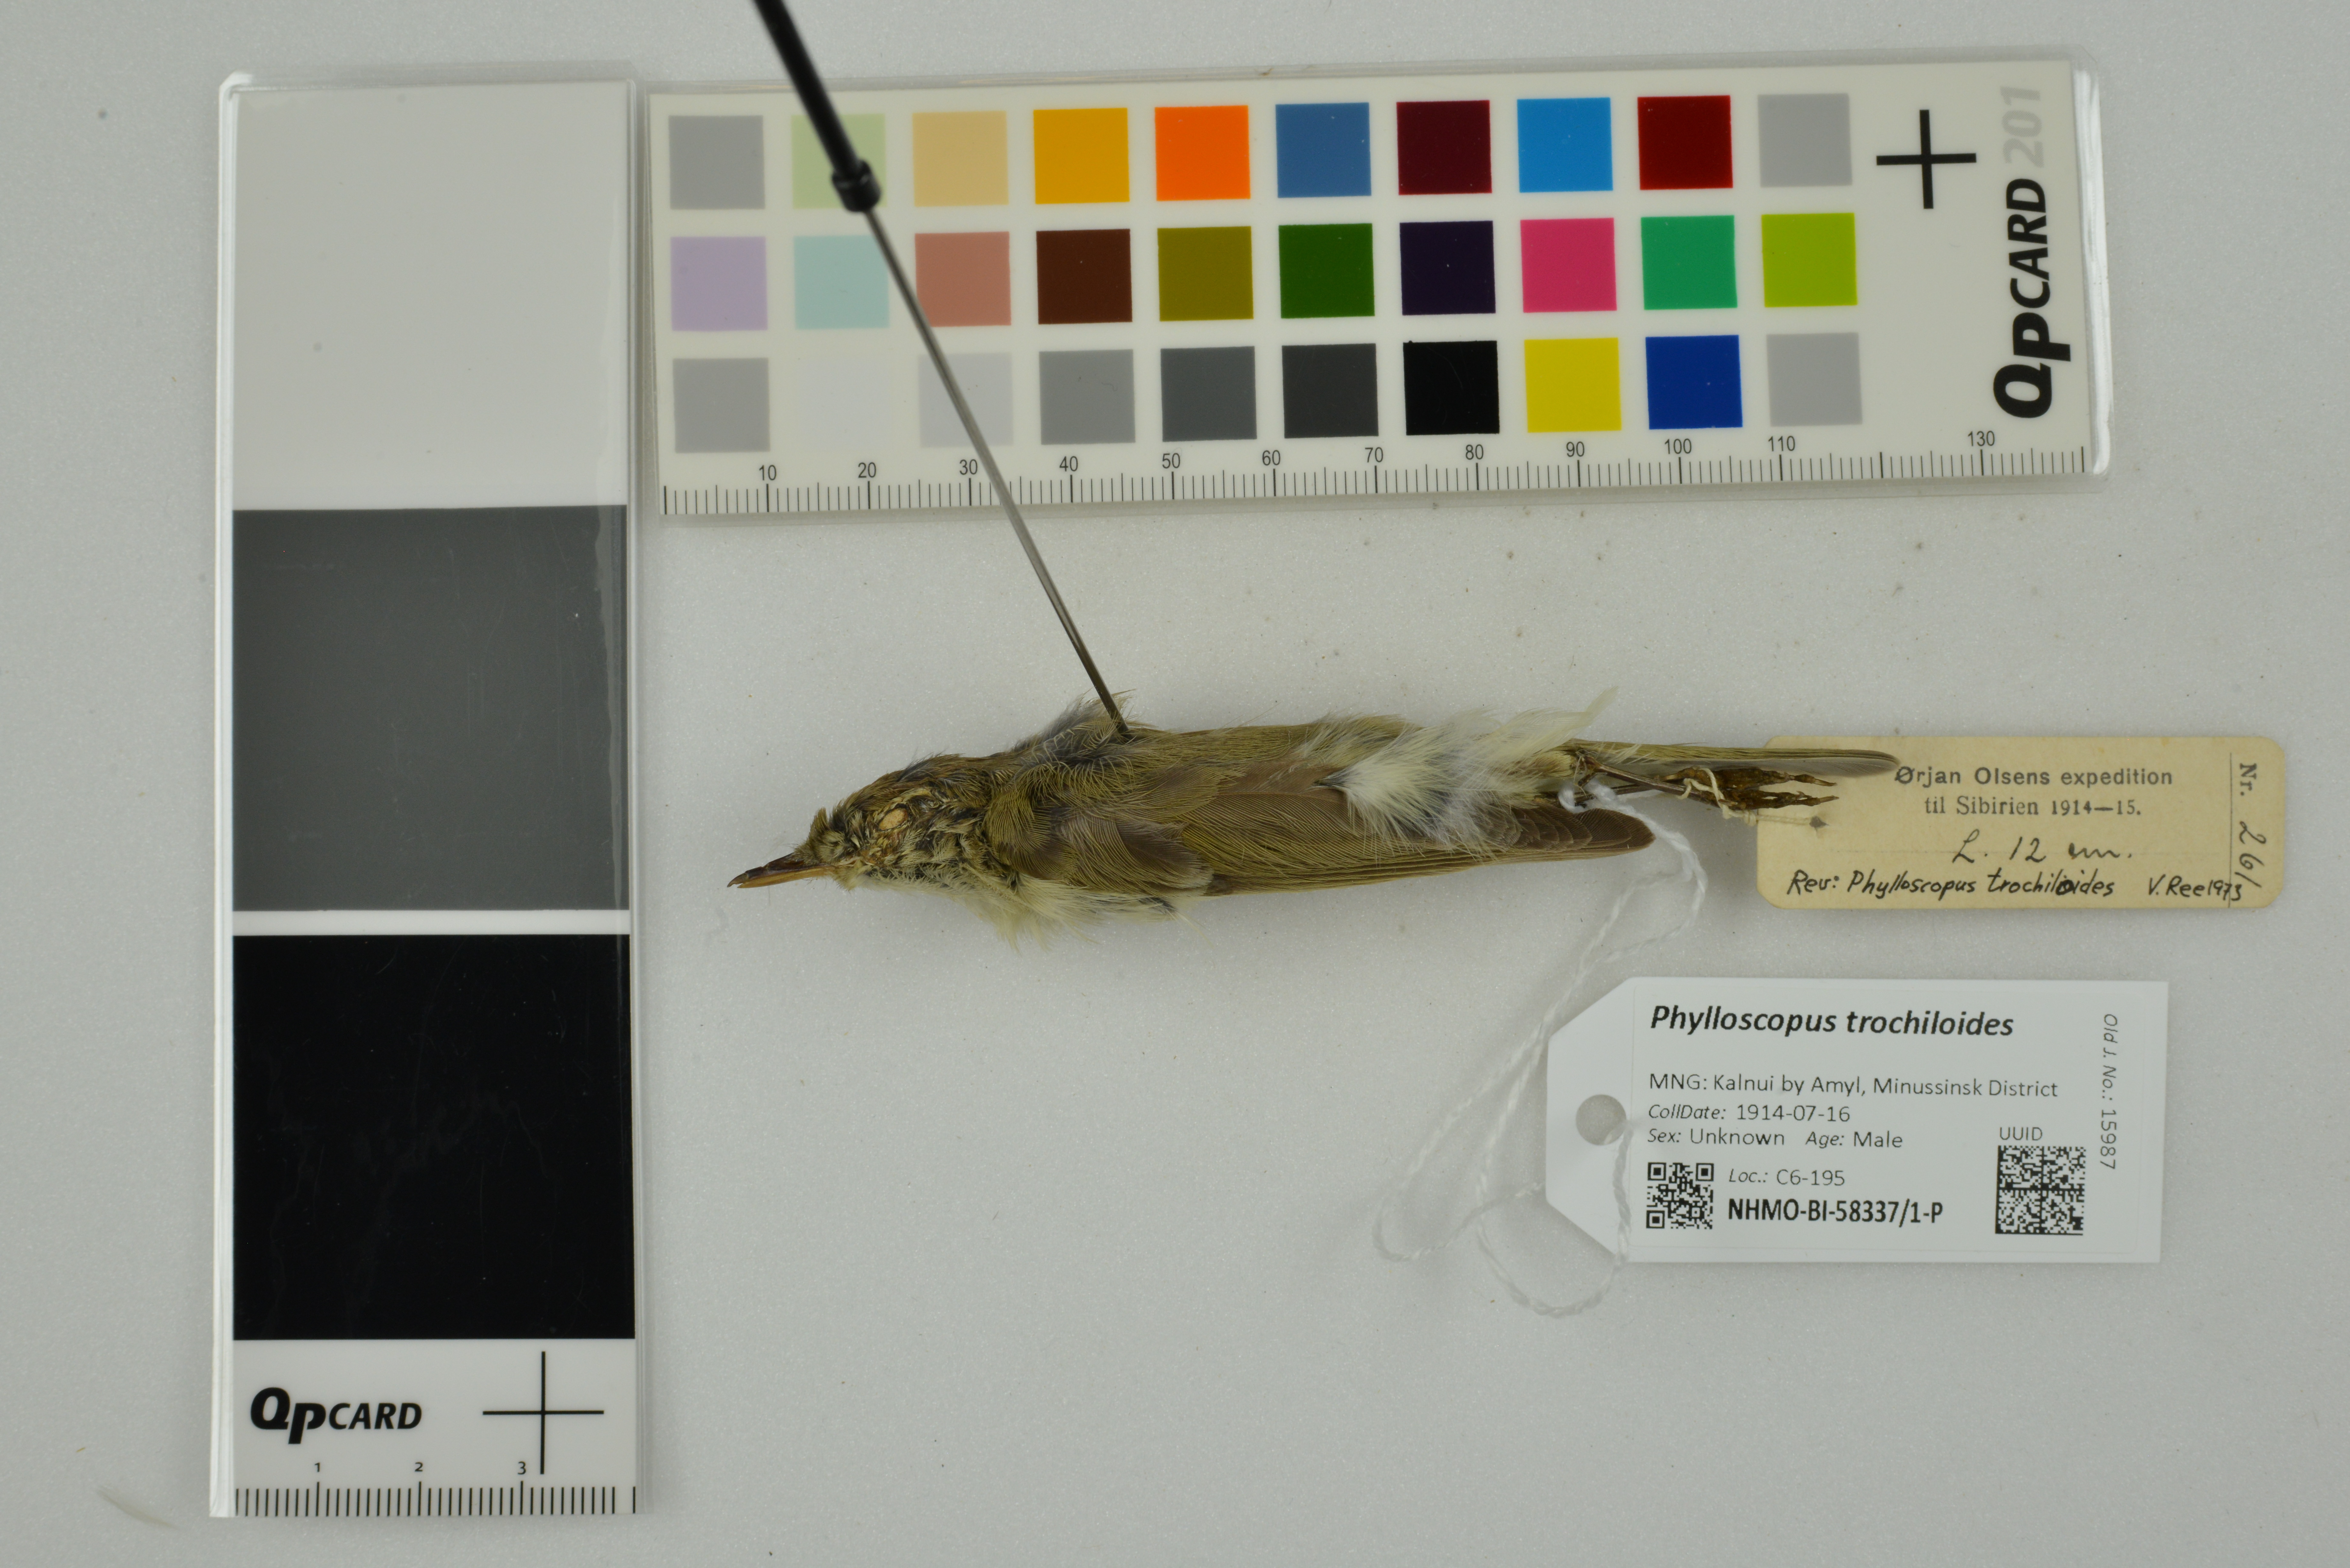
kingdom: Animalia
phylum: Chordata
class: Aves
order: Passeriformes
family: Phylloscopidae
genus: Phylloscopus
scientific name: Phylloscopus trochiloides
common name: Greenish warbler
